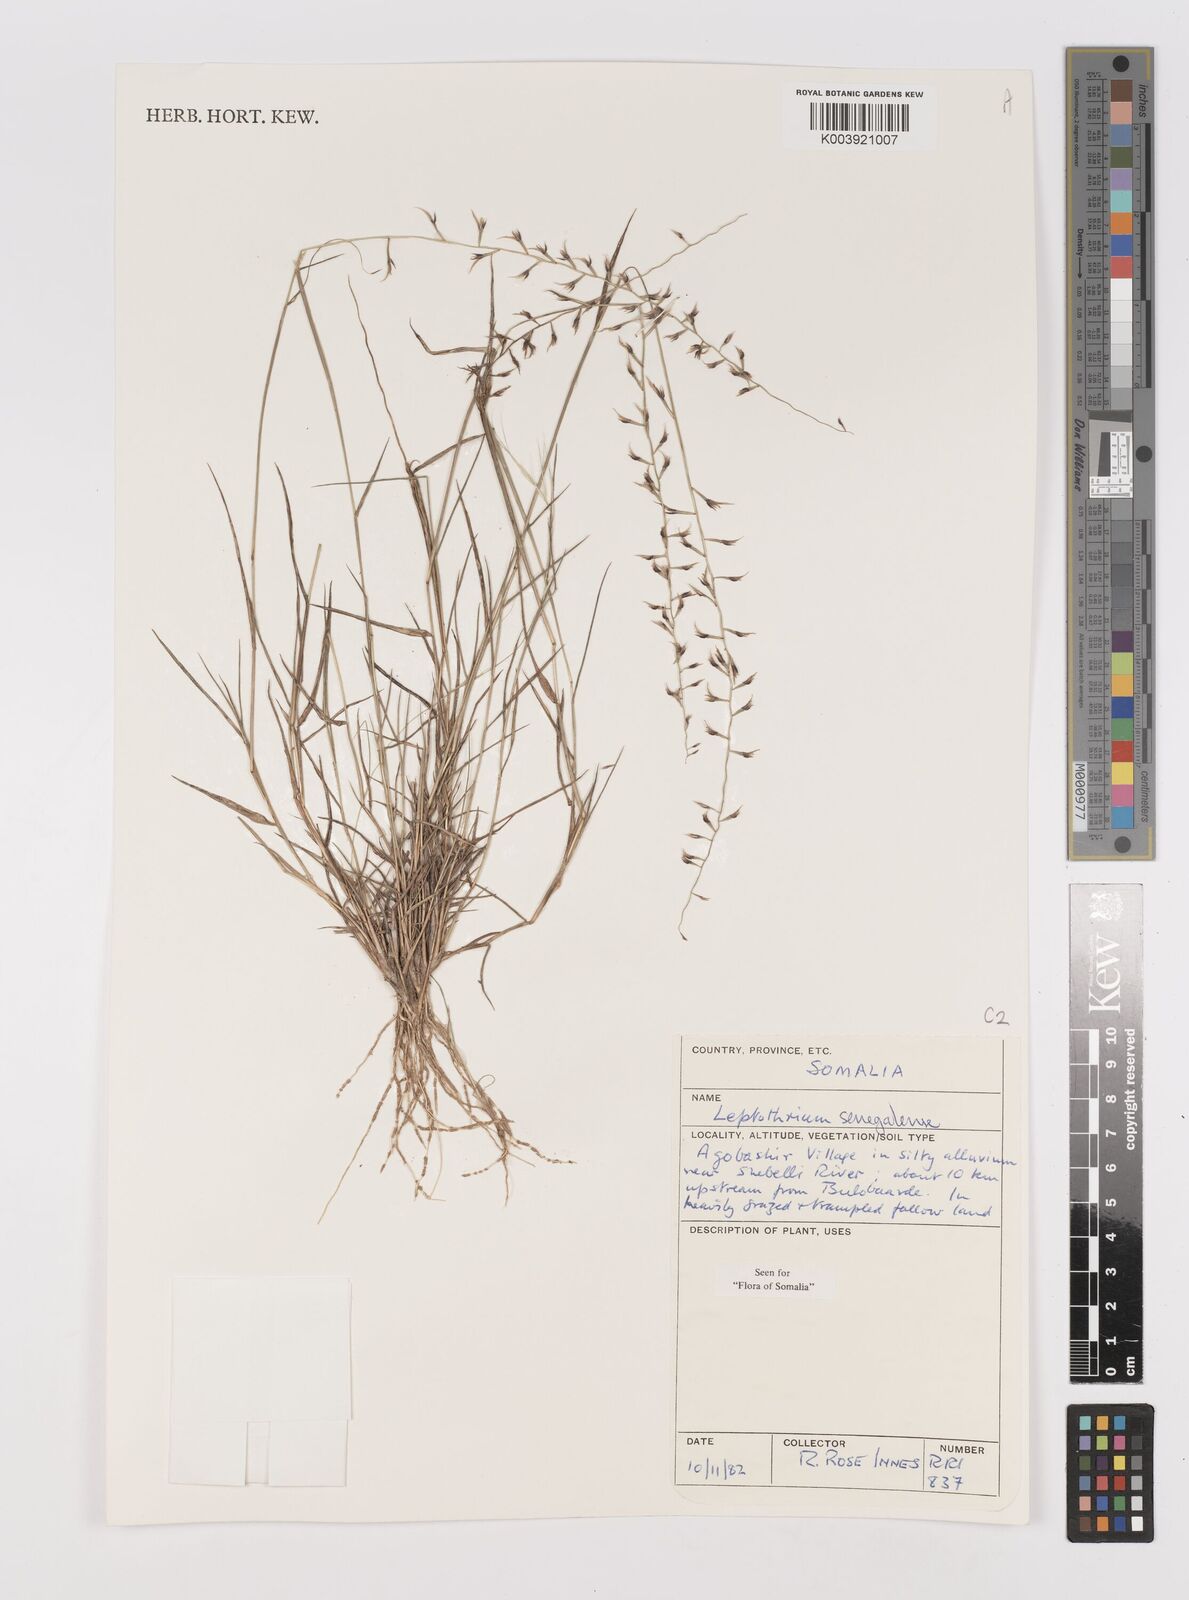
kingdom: Plantae
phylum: Tracheophyta
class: Liliopsida
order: Poales
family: Poaceae
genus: Leptothrium
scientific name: Leptothrium senegalense
